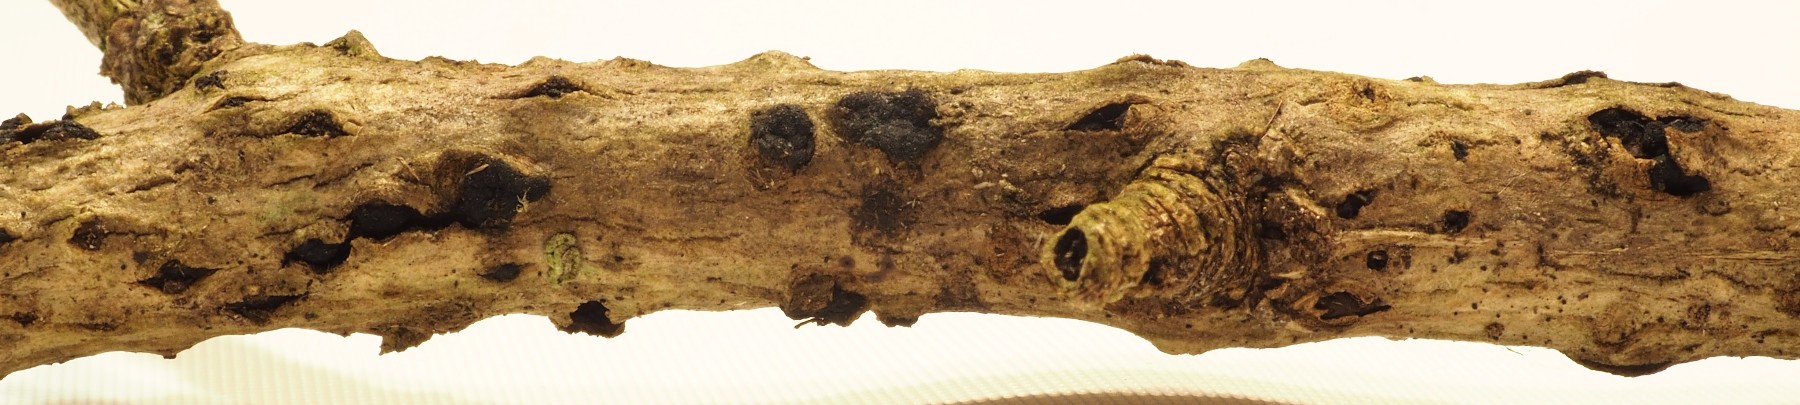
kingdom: Fungi
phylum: Basidiomycota
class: Tremellomycetes
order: Tremellales
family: Tremellaceae
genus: Tremella
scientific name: Tremella exigua
